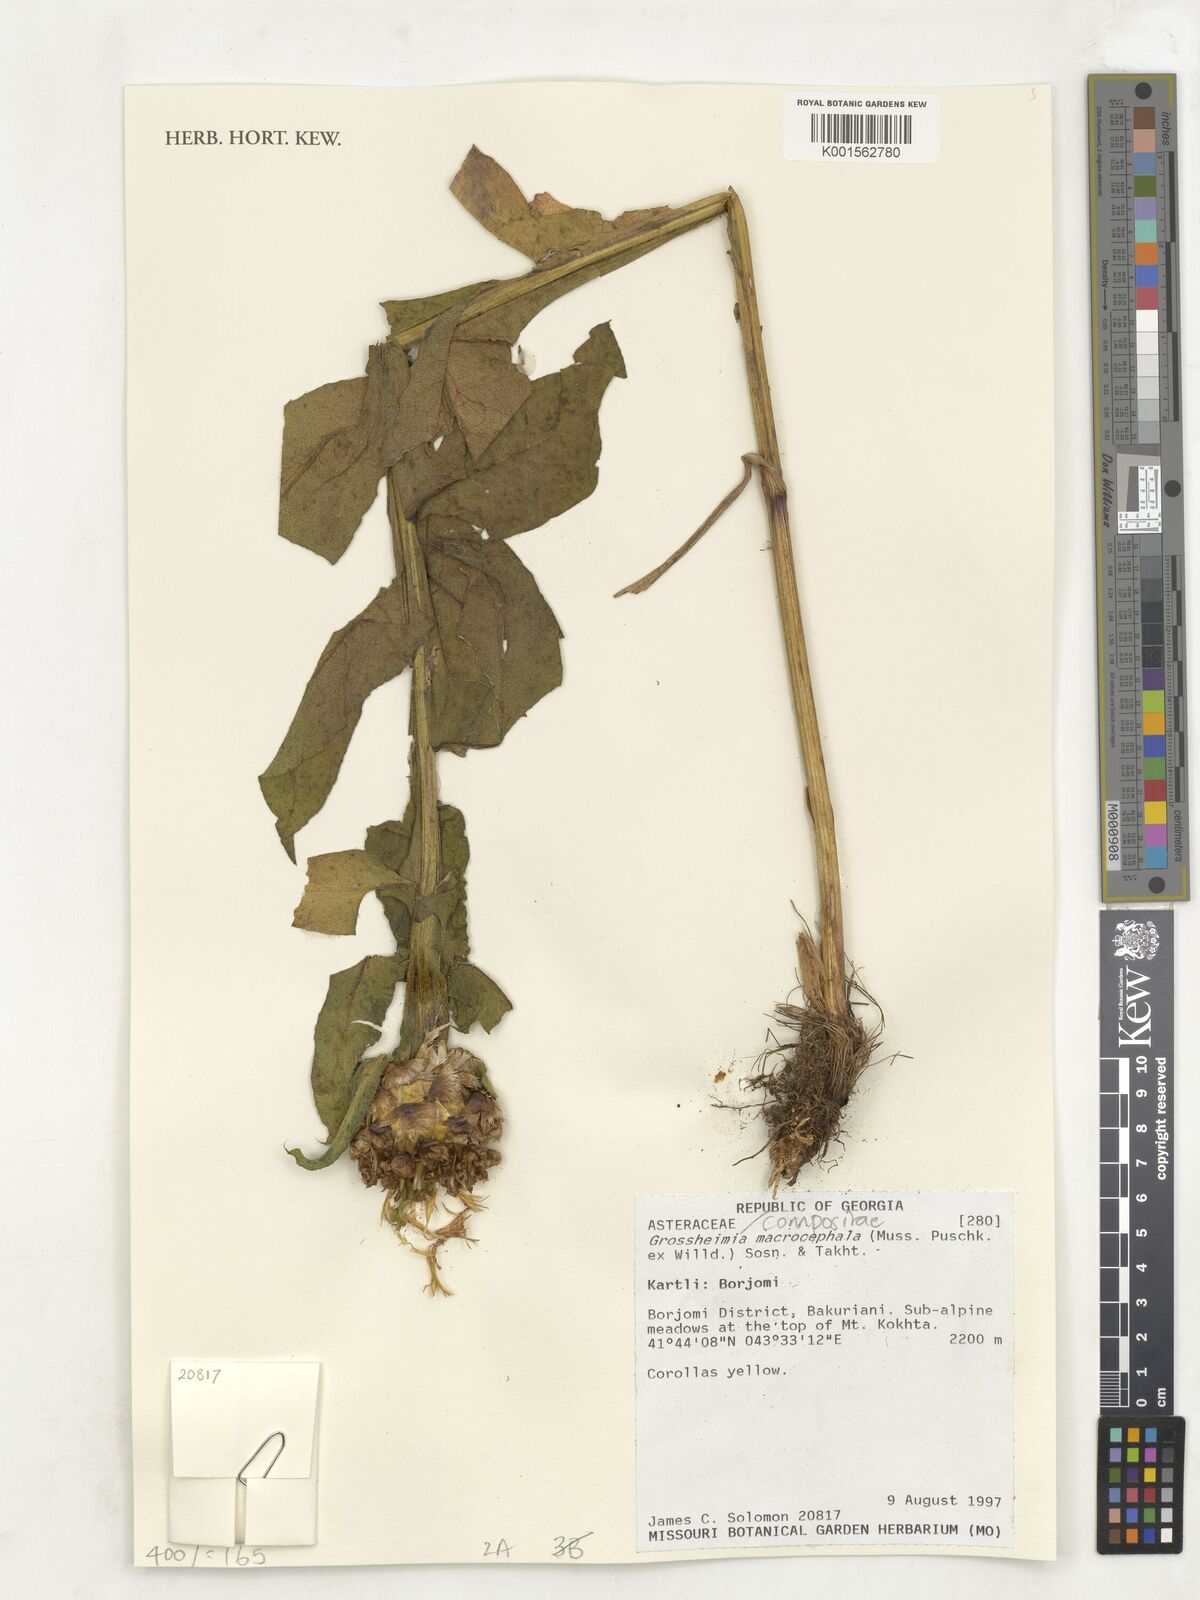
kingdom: Plantae
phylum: Tracheophyta
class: Magnoliopsida
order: Asterales
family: Asteraceae
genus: Centaurea
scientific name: Centaurea macrocephala
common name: Big-head knapweed
